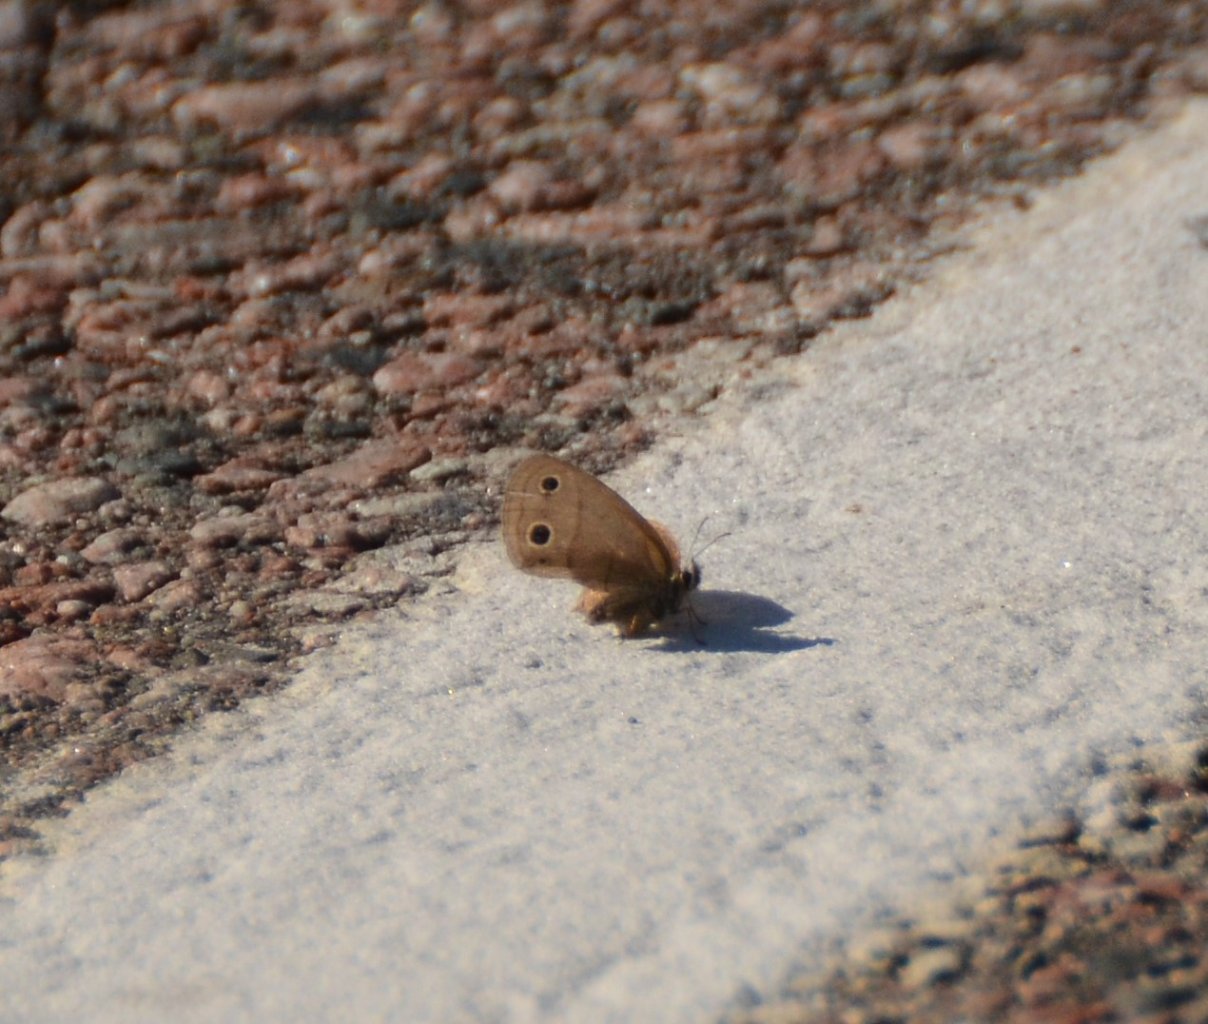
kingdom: Animalia
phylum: Arthropoda
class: Insecta
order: Lepidoptera
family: Nymphalidae
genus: Euptychia
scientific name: Euptychia cymela
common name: Little Wood Satyr
